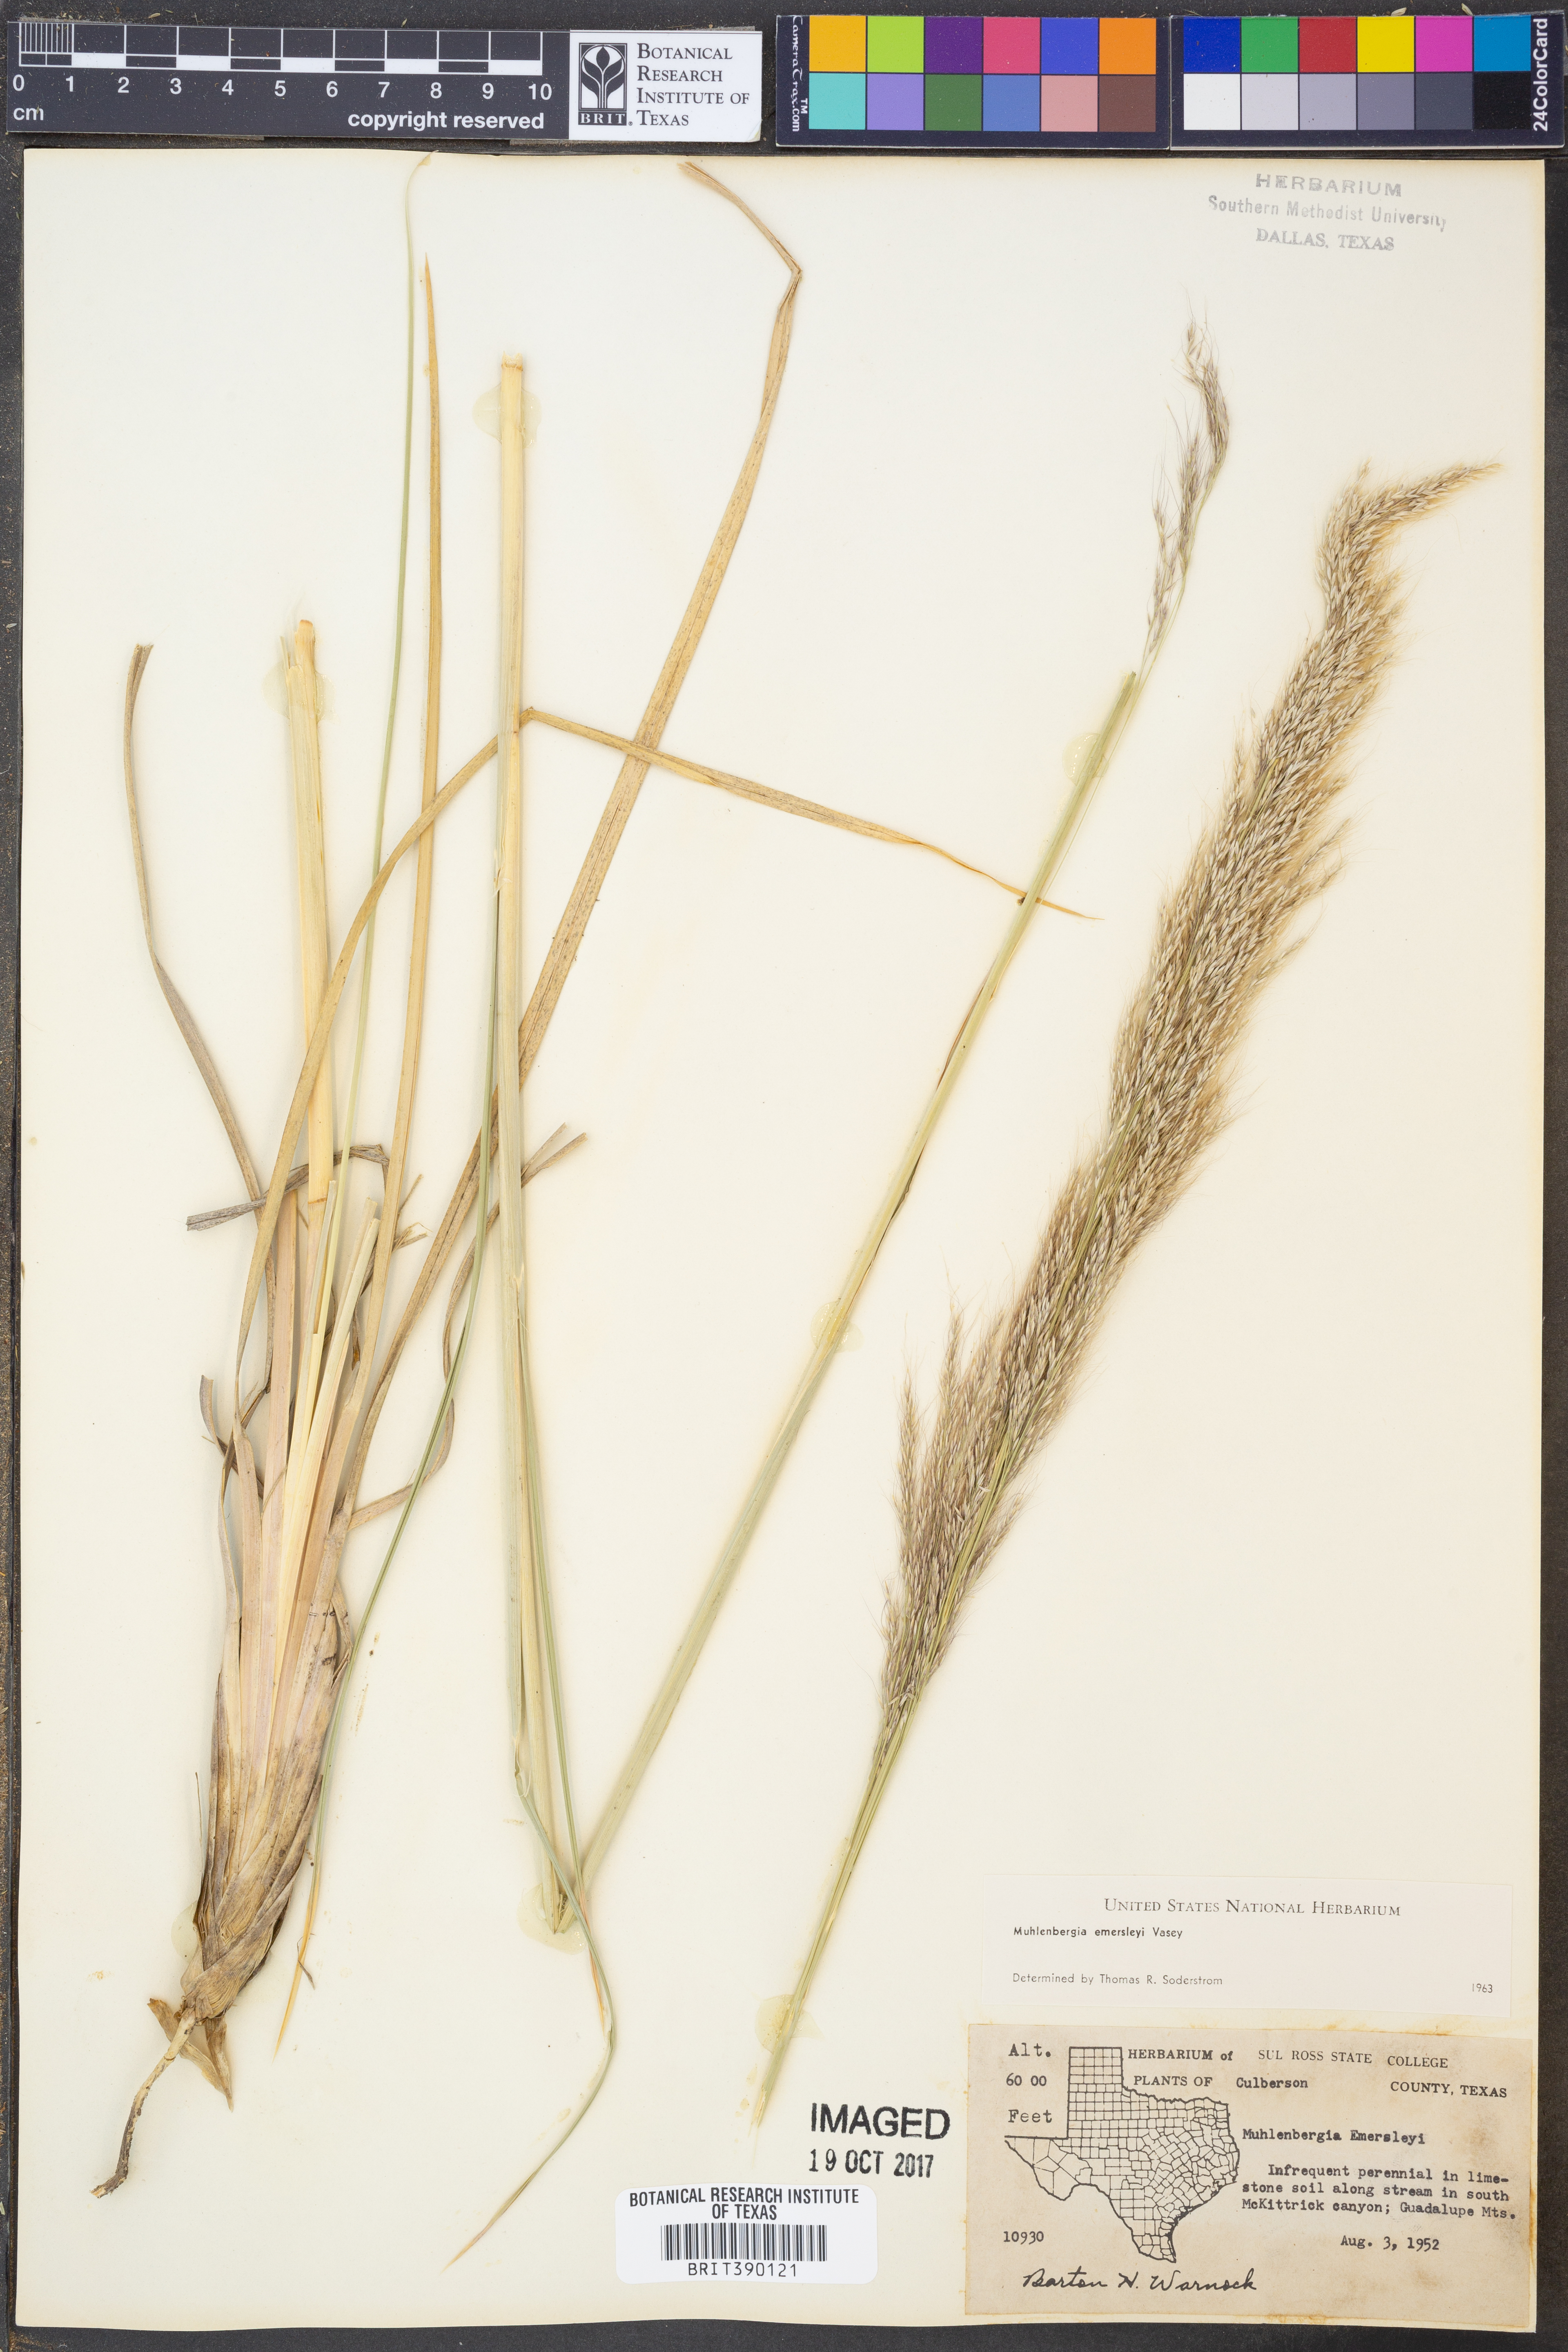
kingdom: Plantae
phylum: Tracheophyta
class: Liliopsida
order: Poales
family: Poaceae
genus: Muhlenbergia
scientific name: Muhlenbergia emersleyi
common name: Bull grass
